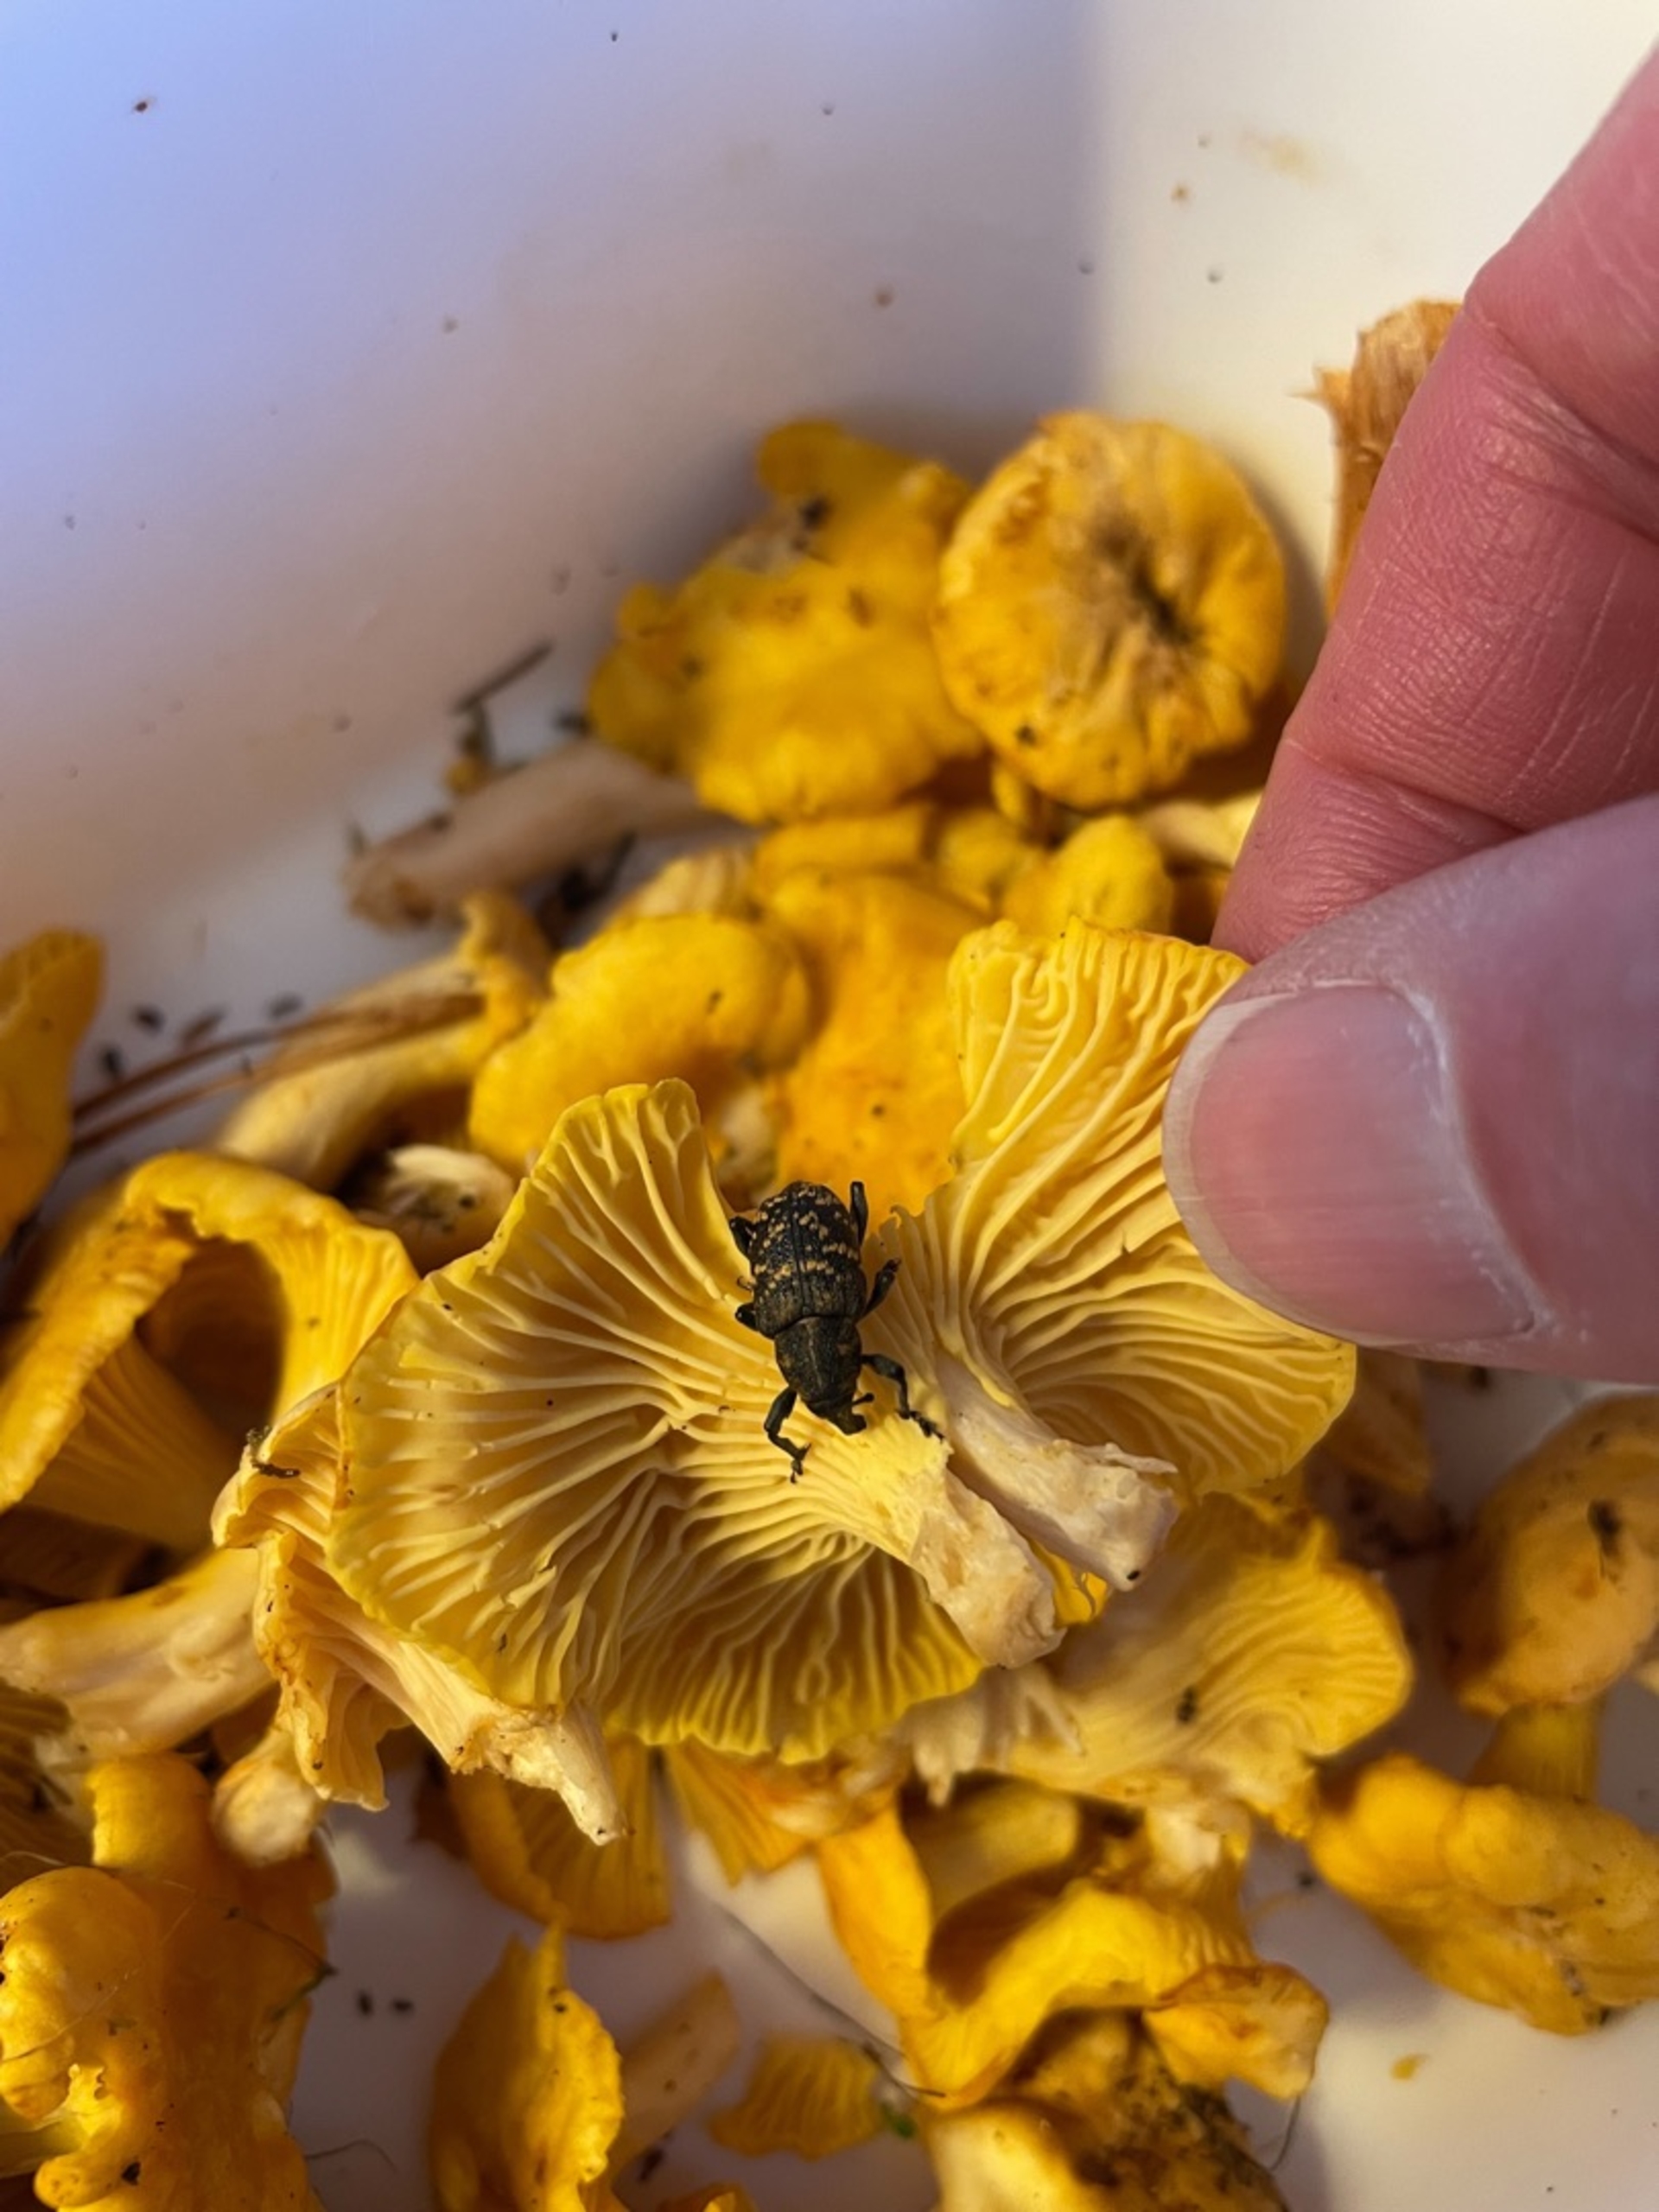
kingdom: Animalia
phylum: Arthropoda
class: Insecta
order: Coleoptera
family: Curculionidae
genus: Hylobius
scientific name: Hylobius abietis
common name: Stor nåletræsnudebille
